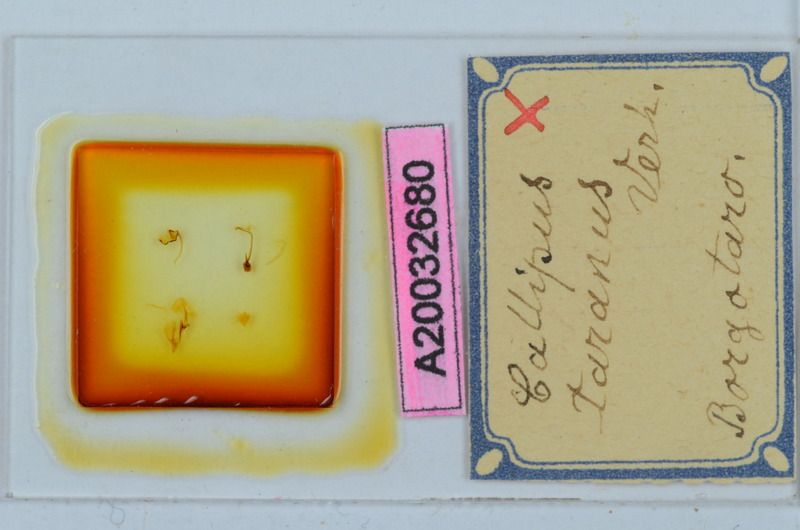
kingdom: Animalia
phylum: Arthropoda
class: Diplopoda
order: Callipodida
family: Callipodidae
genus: Callipus
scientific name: Callipus foetidissimus
